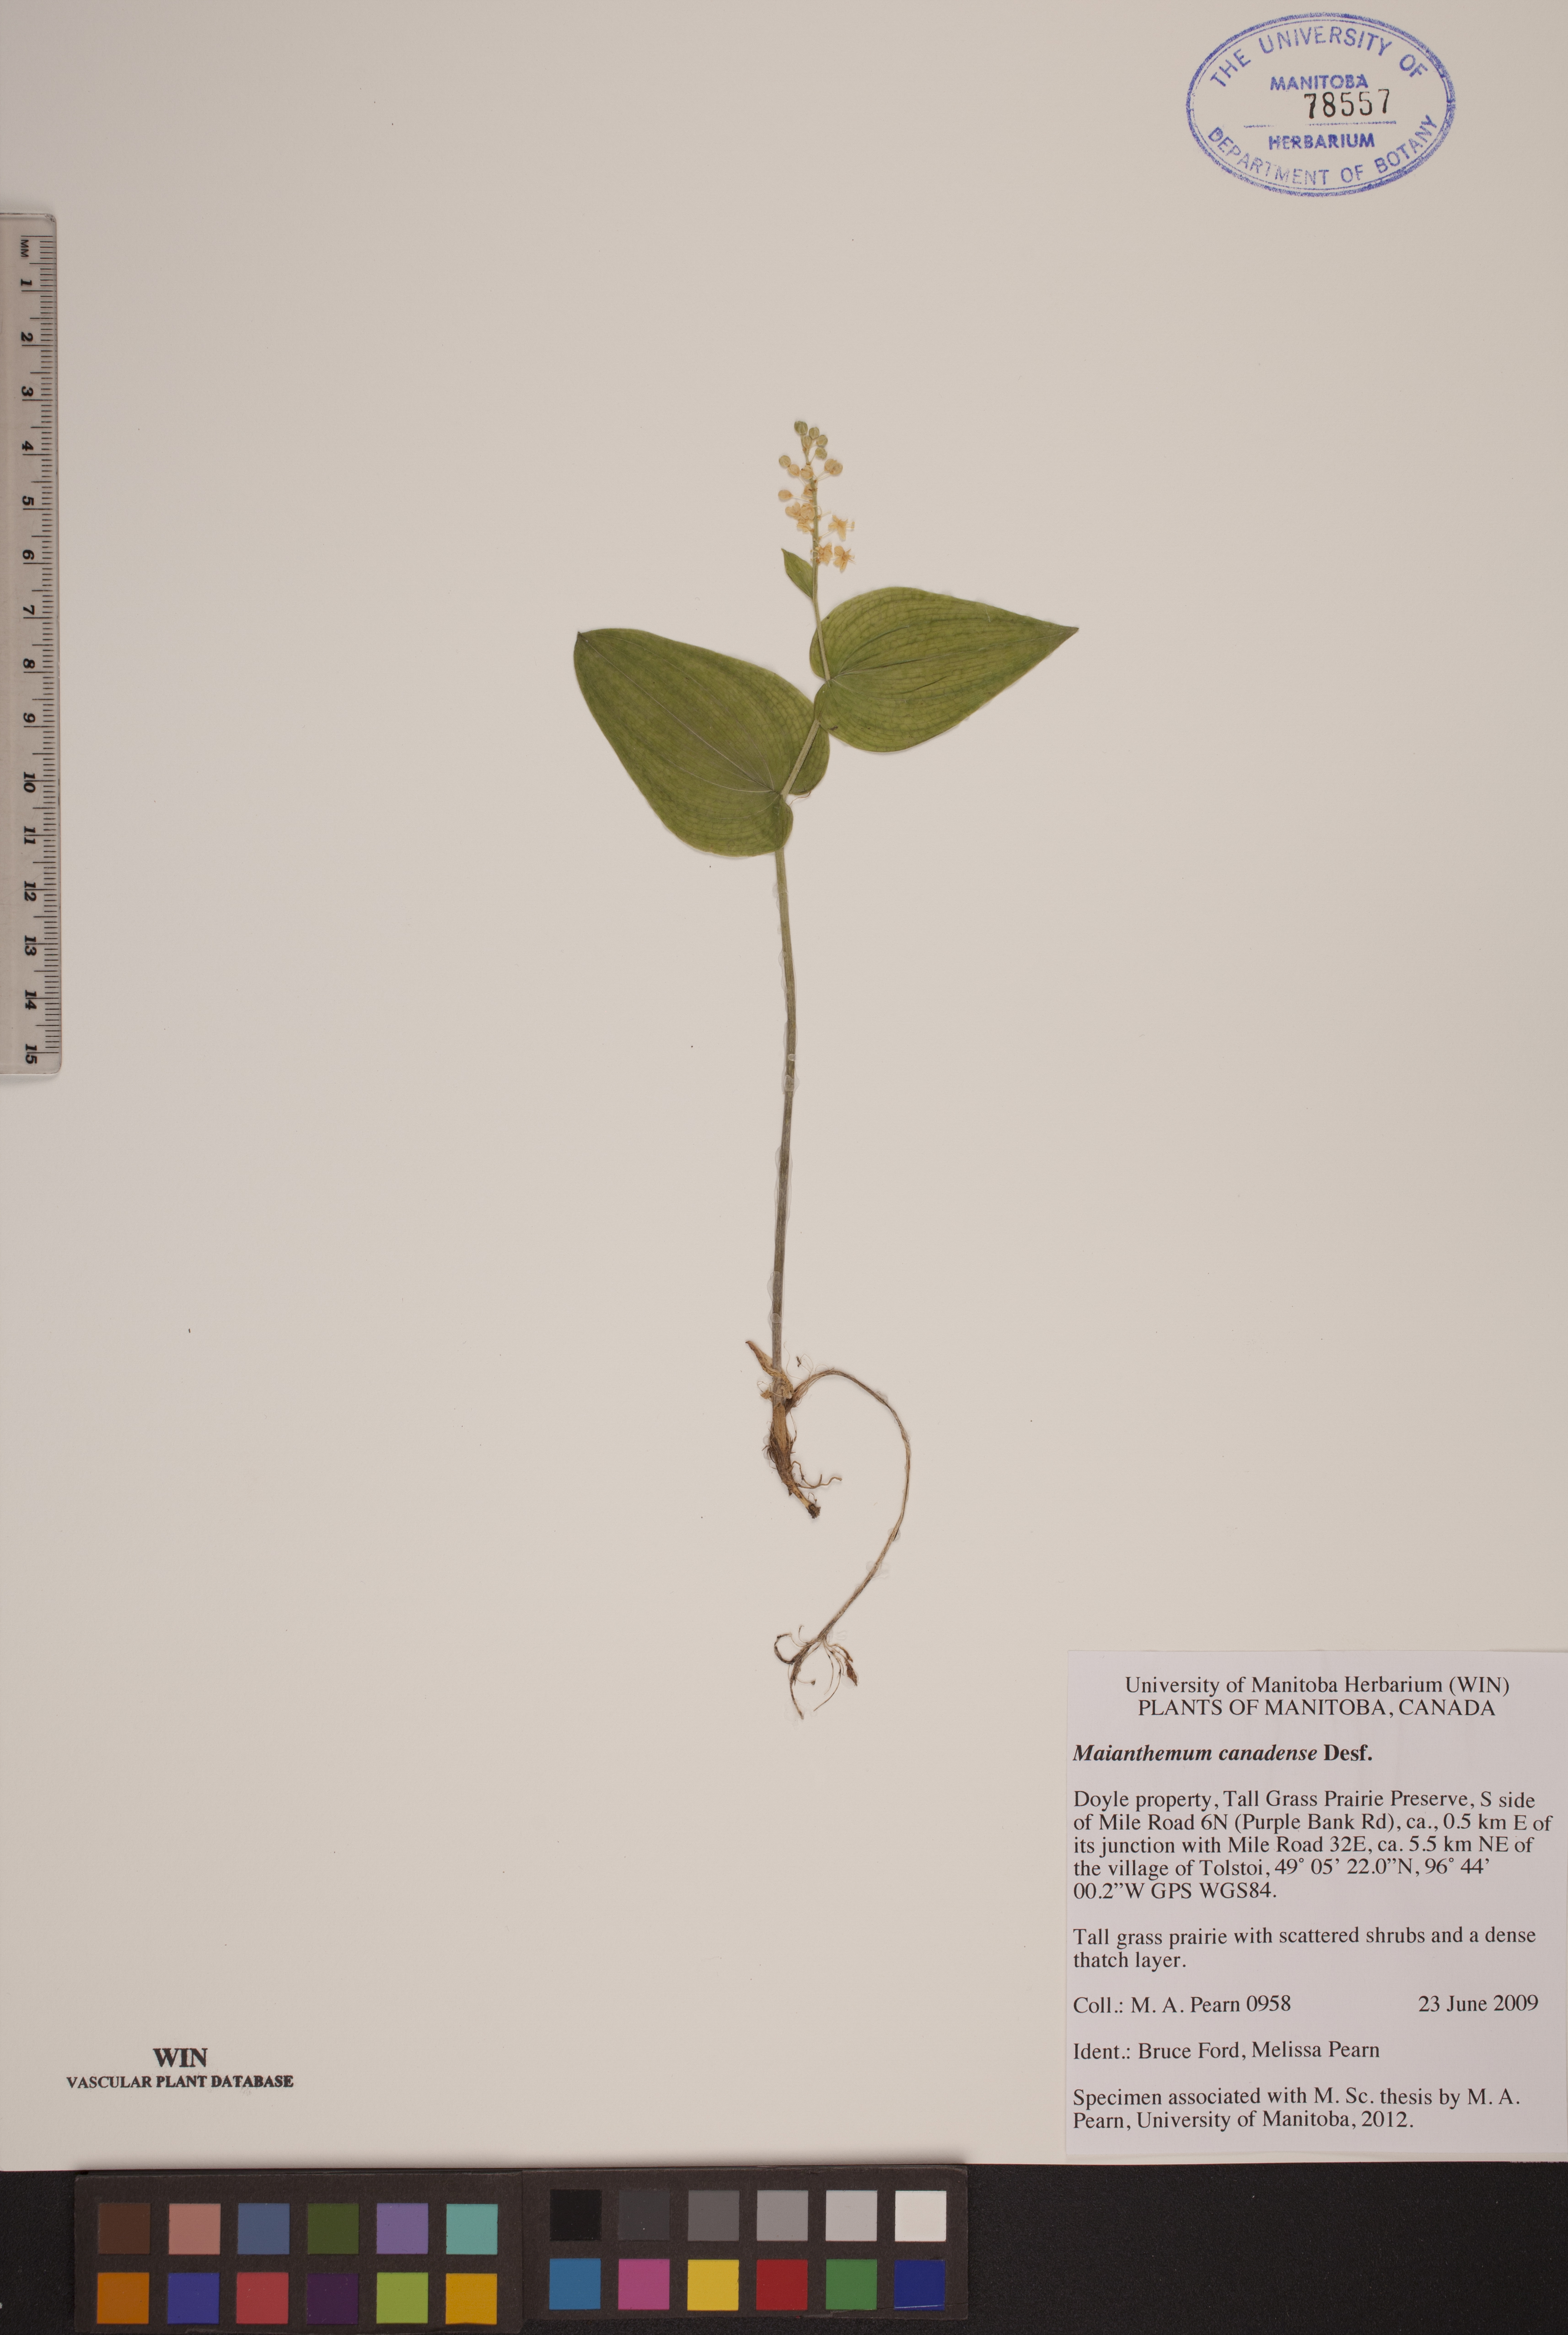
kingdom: Plantae
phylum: Tracheophyta
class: Liliopsida
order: Asparagales
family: Asparagaceae
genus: Maianthemum
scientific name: Maianthemum canadense
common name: False lily-of-the-valley
